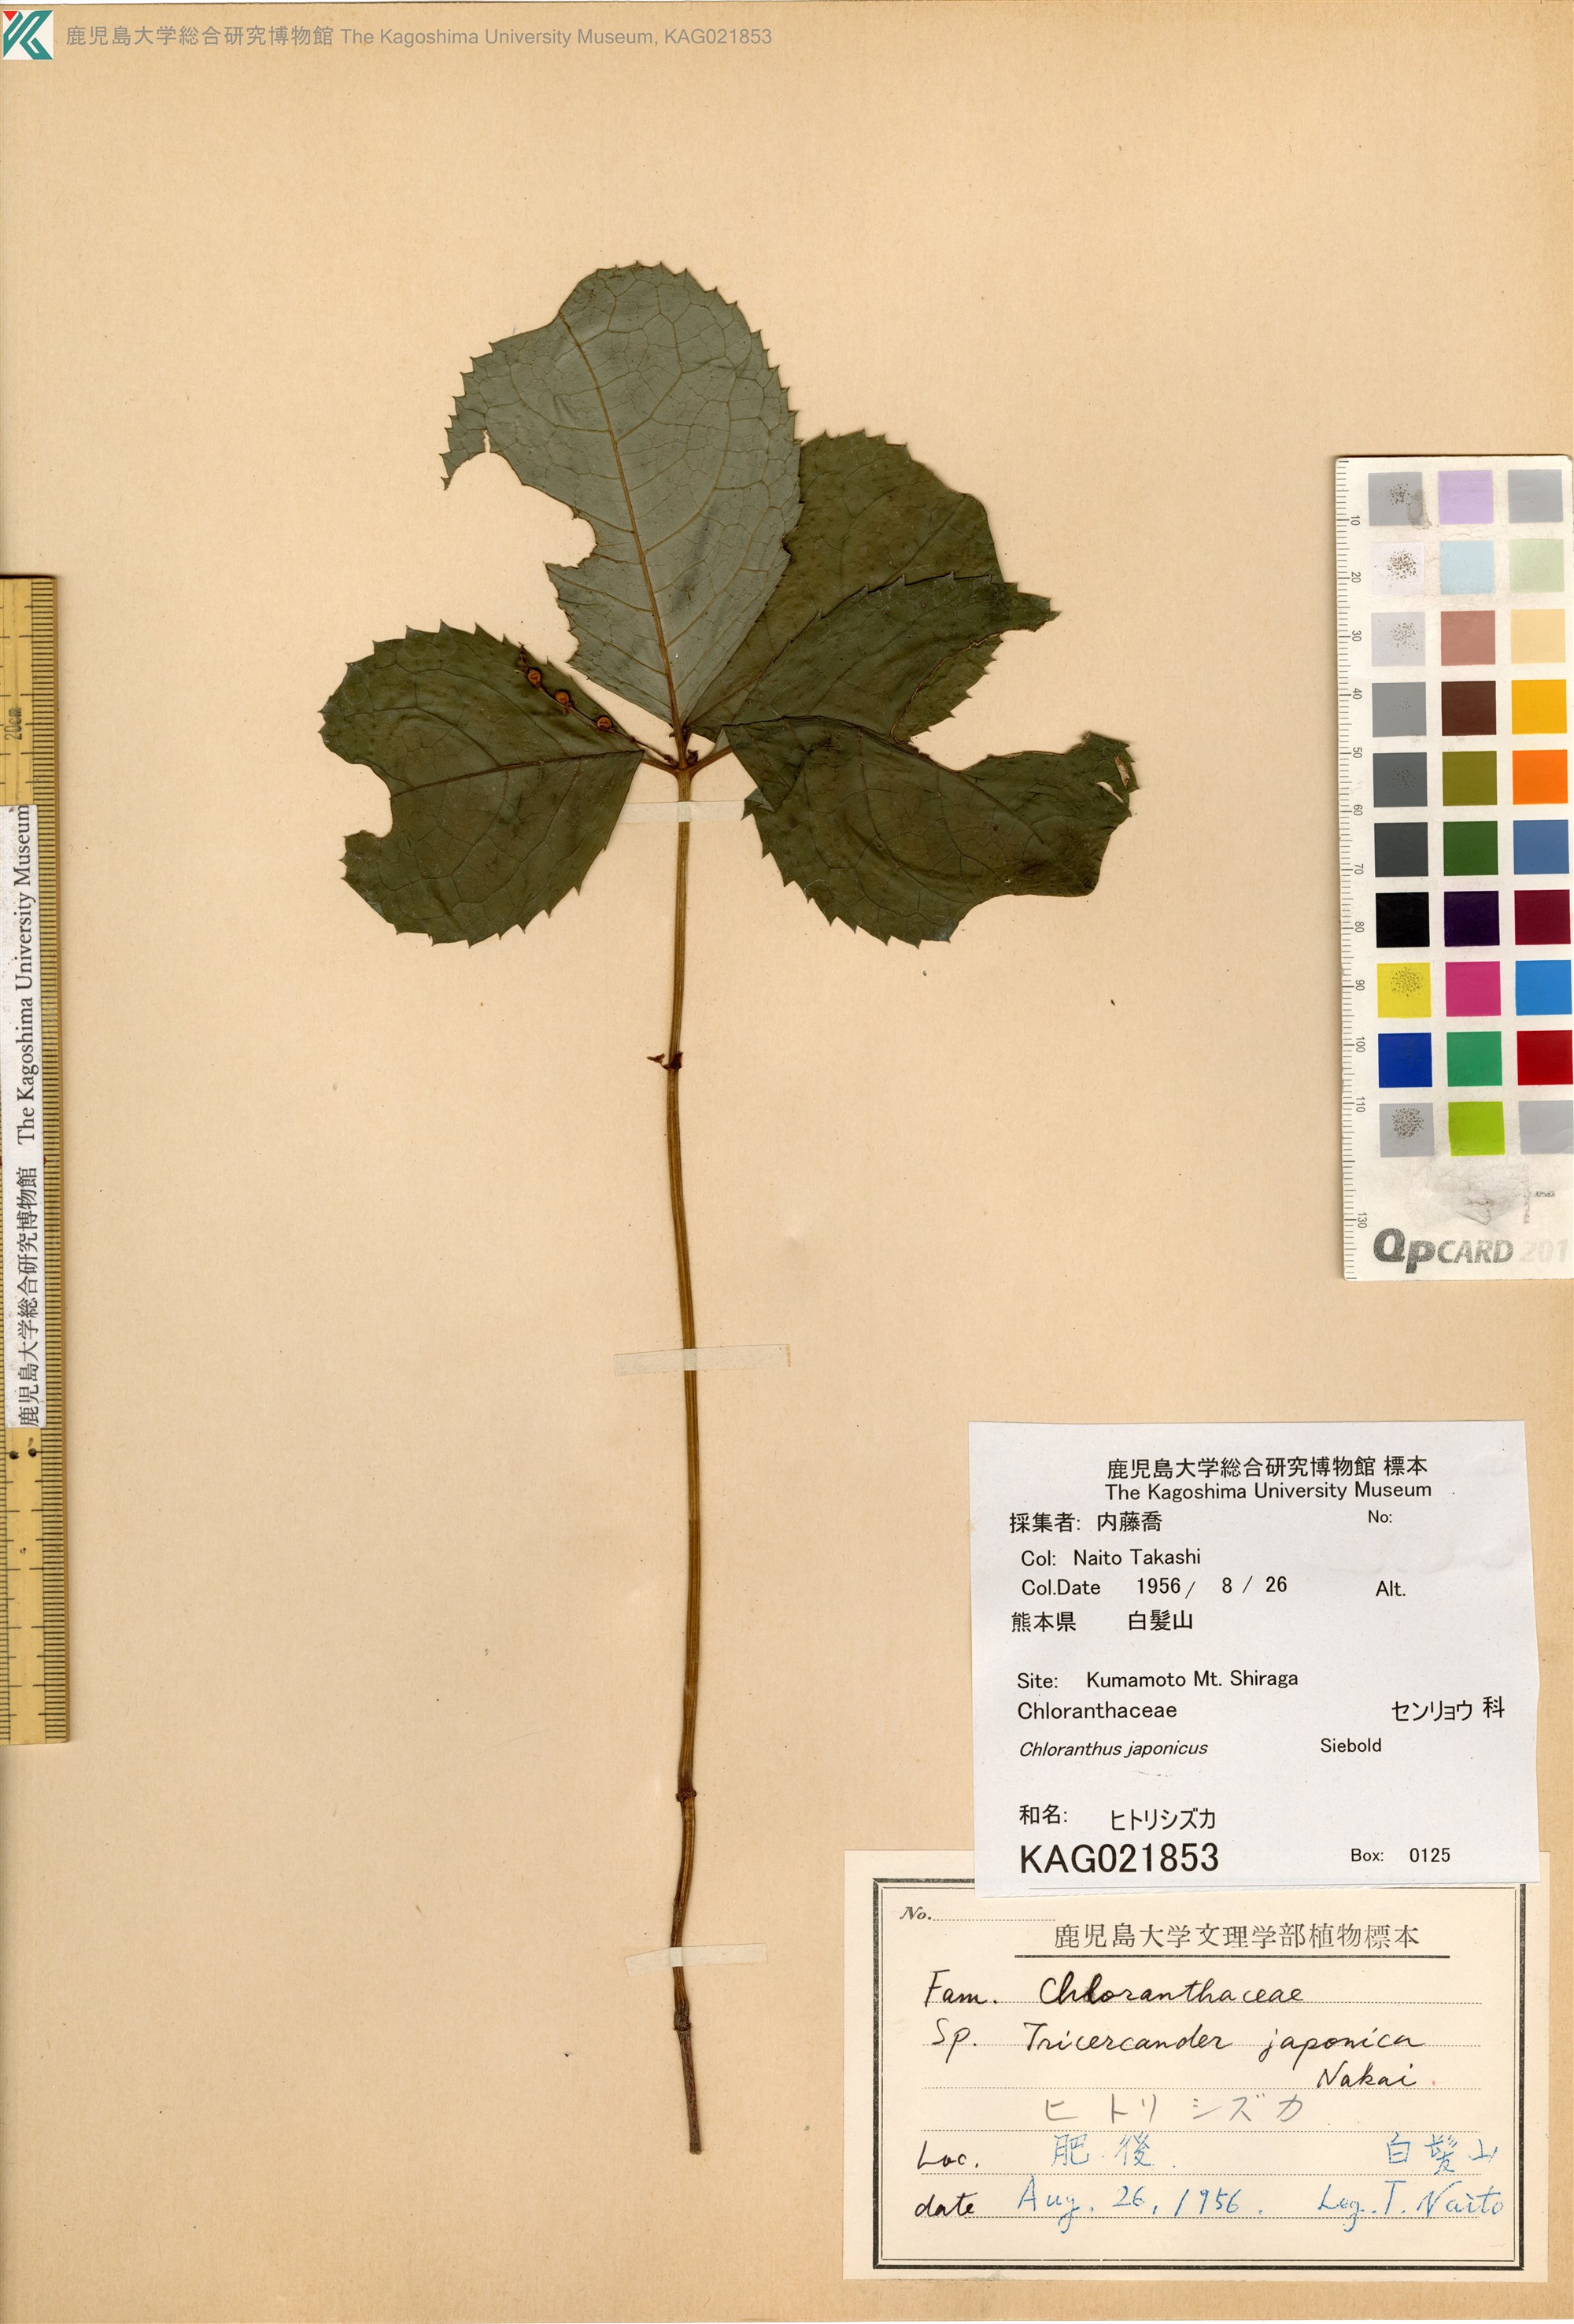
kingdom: Plantae
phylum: Tracheophyta
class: Magnoliopsida
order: Chloranthales
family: Chloranthaceae
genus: Chloranthus
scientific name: Chloranthus quadrifolius
